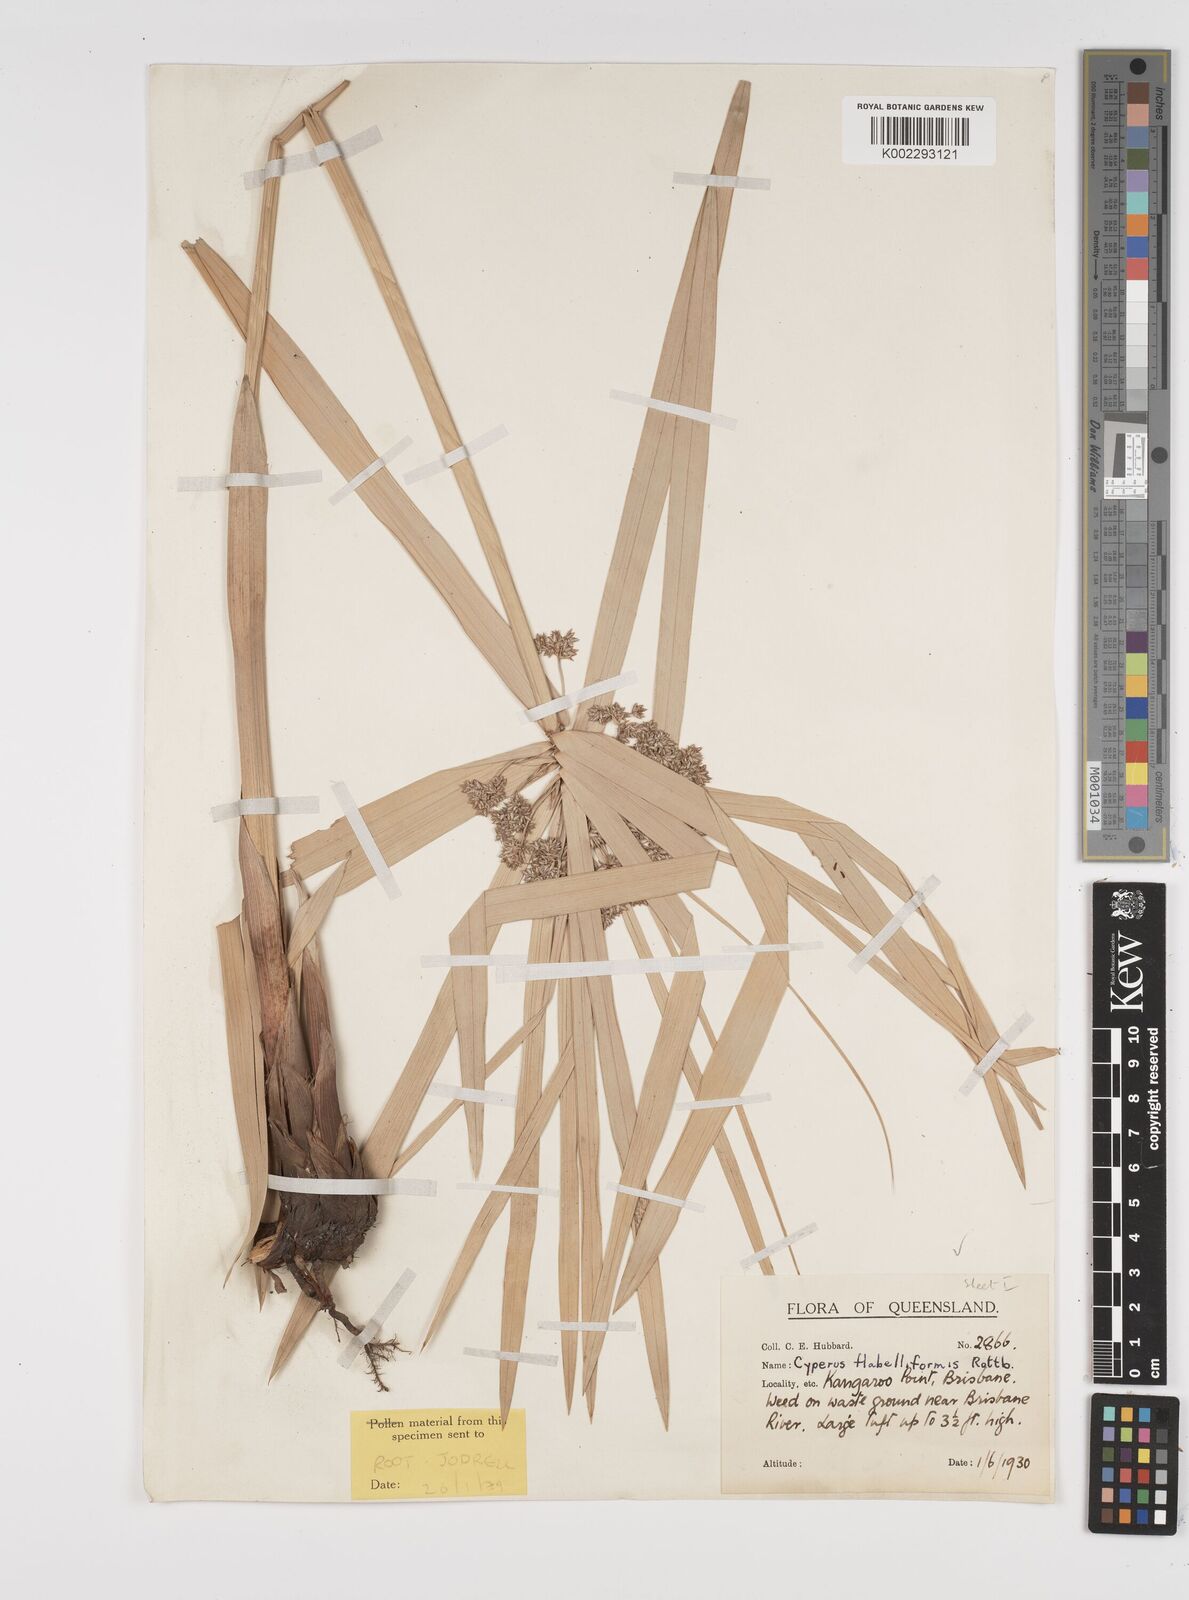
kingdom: Plantae
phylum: Tracheophyta
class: Liliopsida
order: Poales
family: Cyperaceae
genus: Cyperus
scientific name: Cyperus alternifolius
